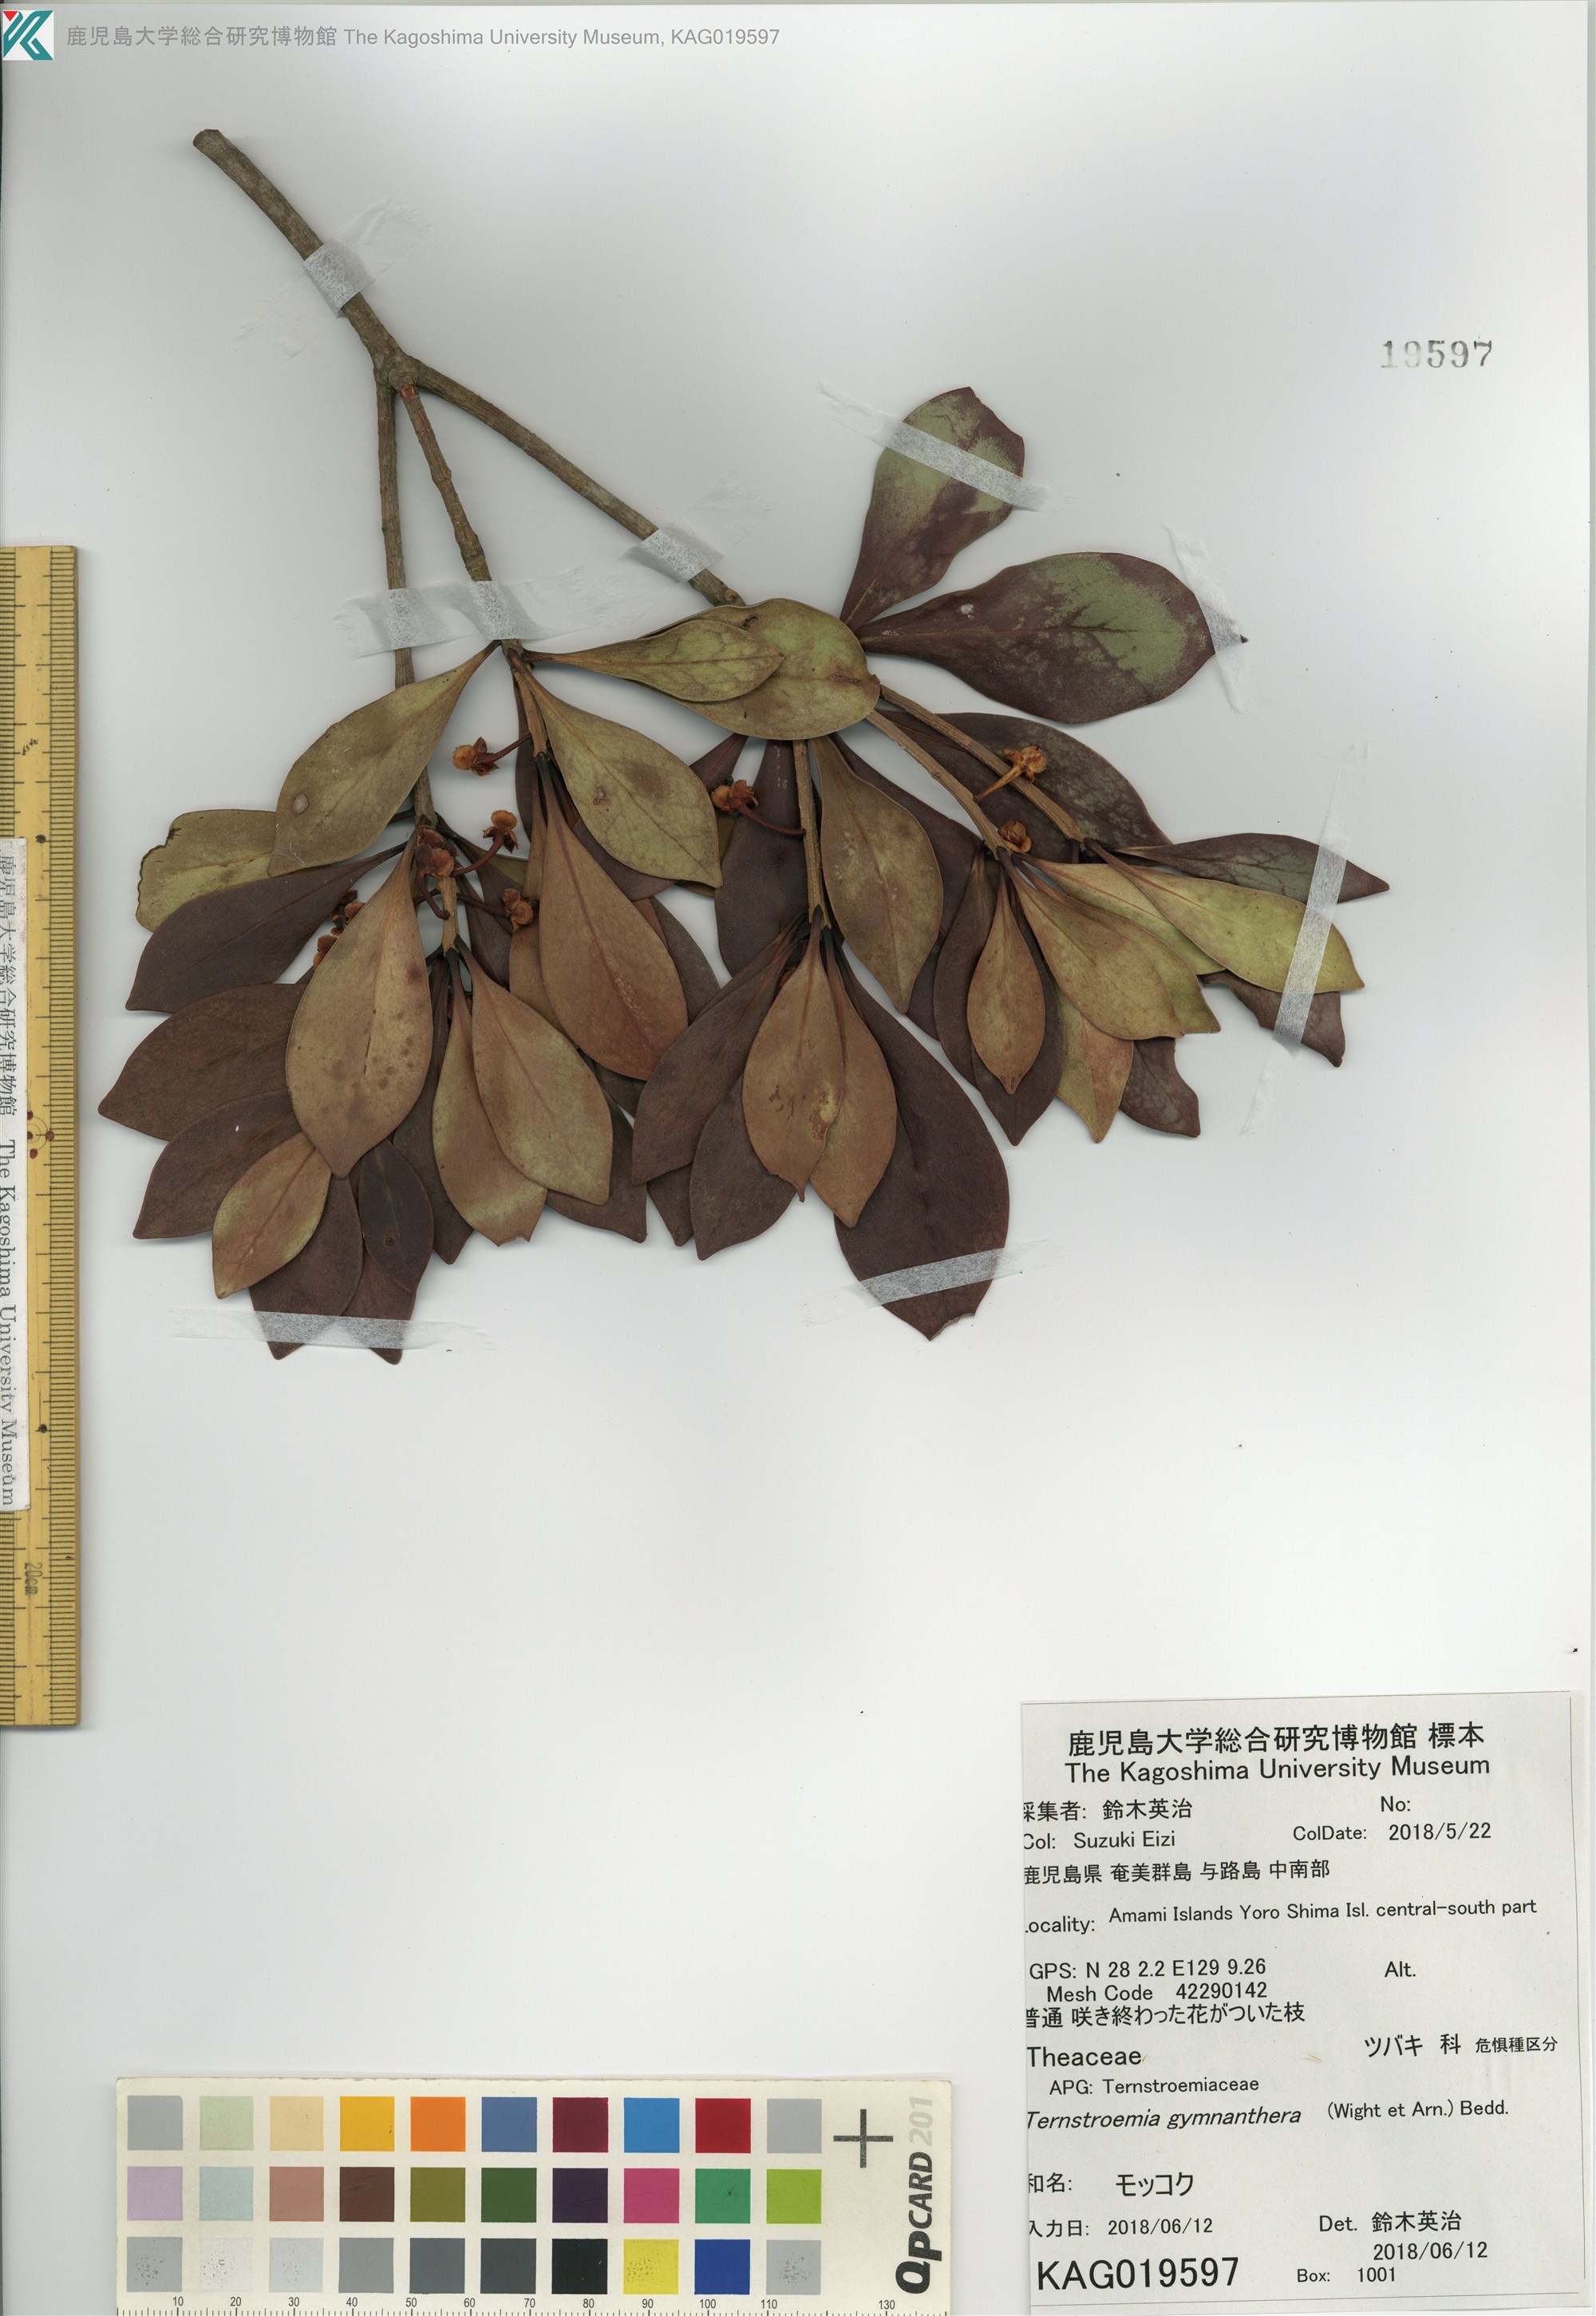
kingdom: Plantae
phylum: Tracheophyta
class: Magnoliopsida
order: Ericales
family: Pentaphylacaceae
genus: Ternstroemia
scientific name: Ternstroemia gymnanthera
